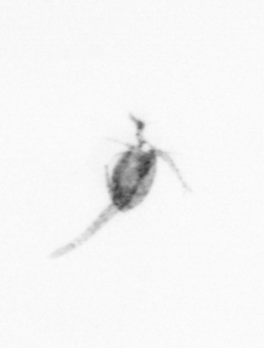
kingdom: Animalia
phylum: Arthropoda
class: Copepoda
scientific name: Copepoda
